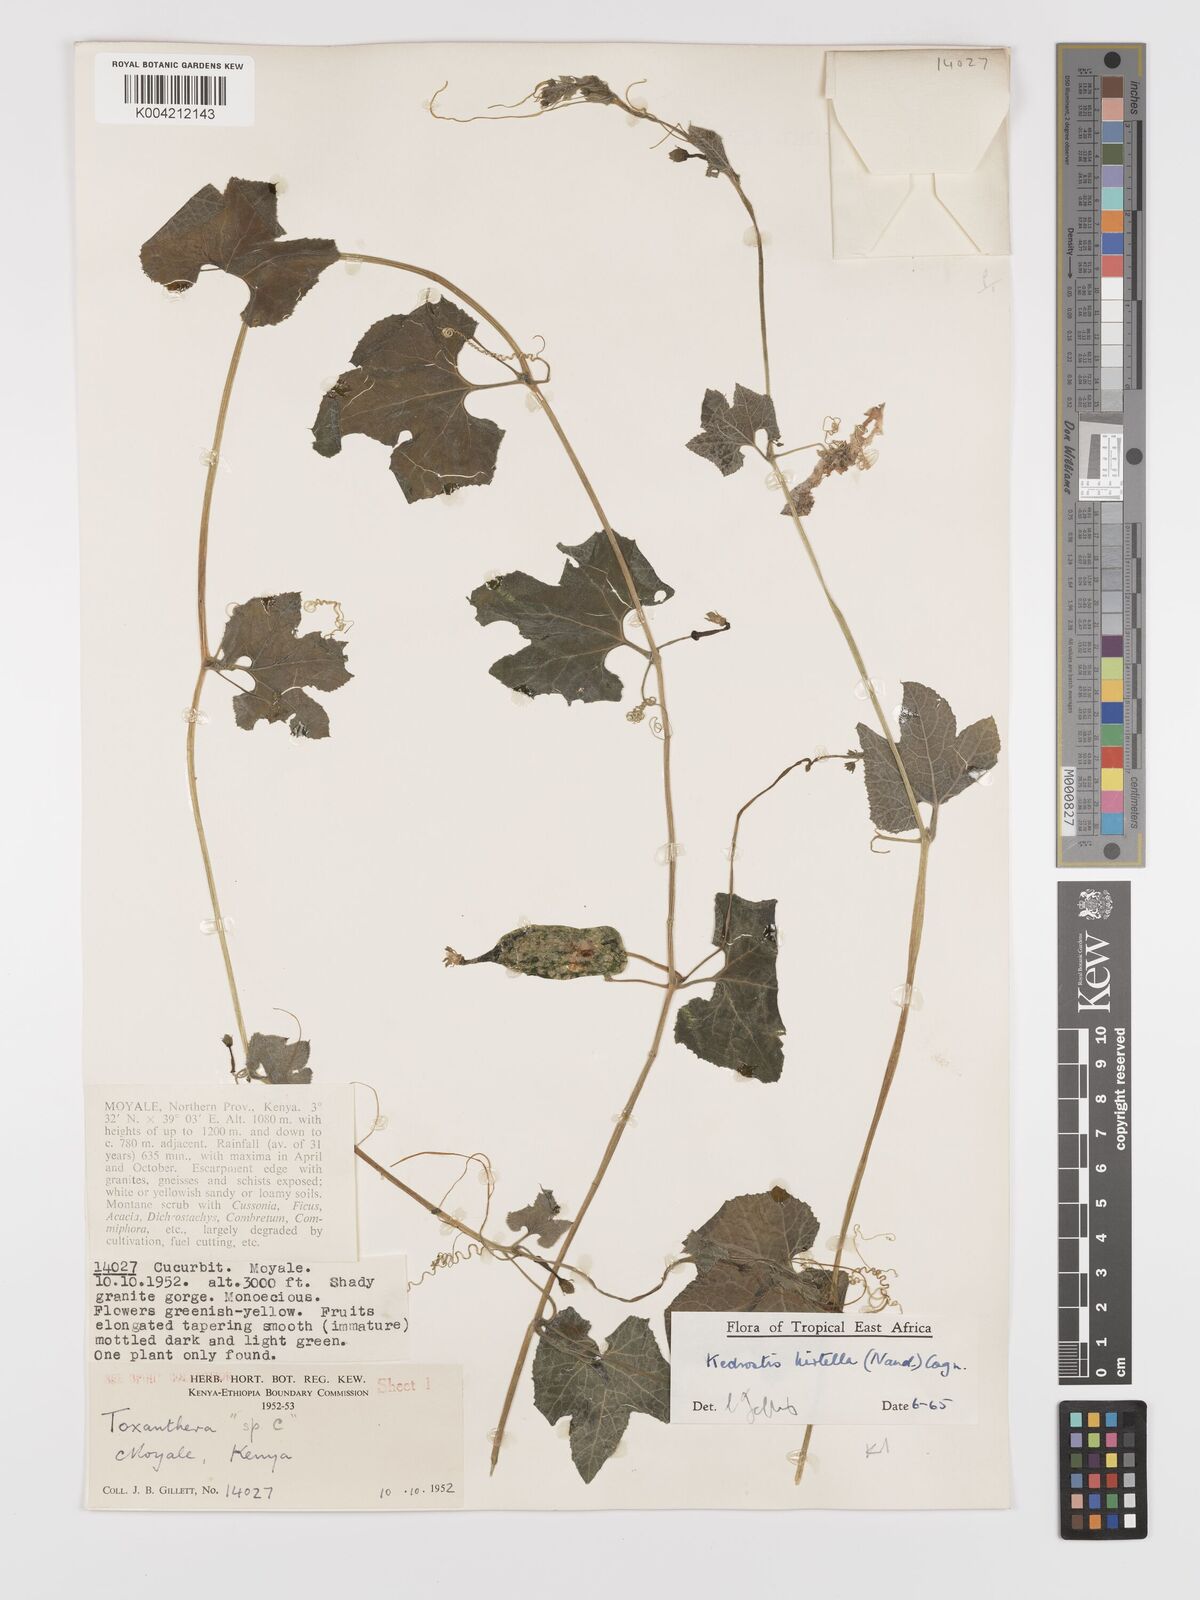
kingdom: Plantae
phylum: Tracheophyta
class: Magnoliopsida
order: Cucurbitales
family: Cucurbitaceae
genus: Kedrostis
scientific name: Kedrostis leloja
